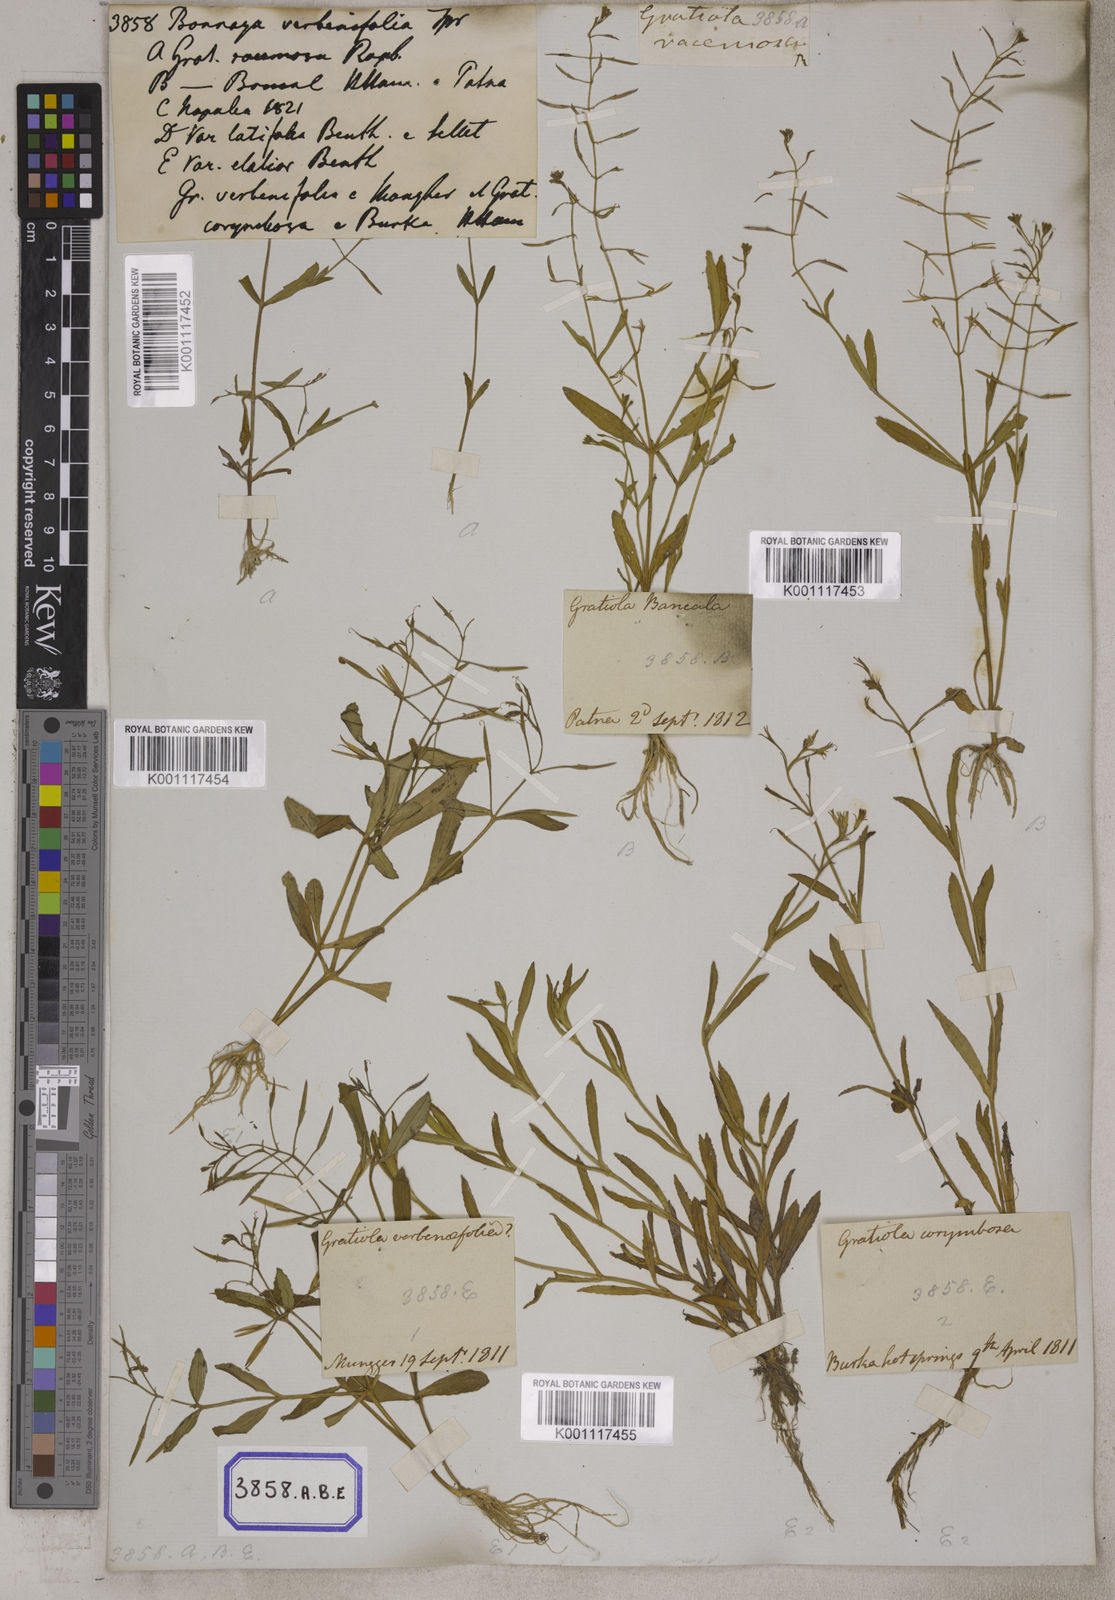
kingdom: Plantae
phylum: Tracheophyta
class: Magnoliopsida
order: Lamiales
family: Linderniaceae
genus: Bonnaya
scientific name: Bonnaya antipoda
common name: Sparrow false pimpernel
